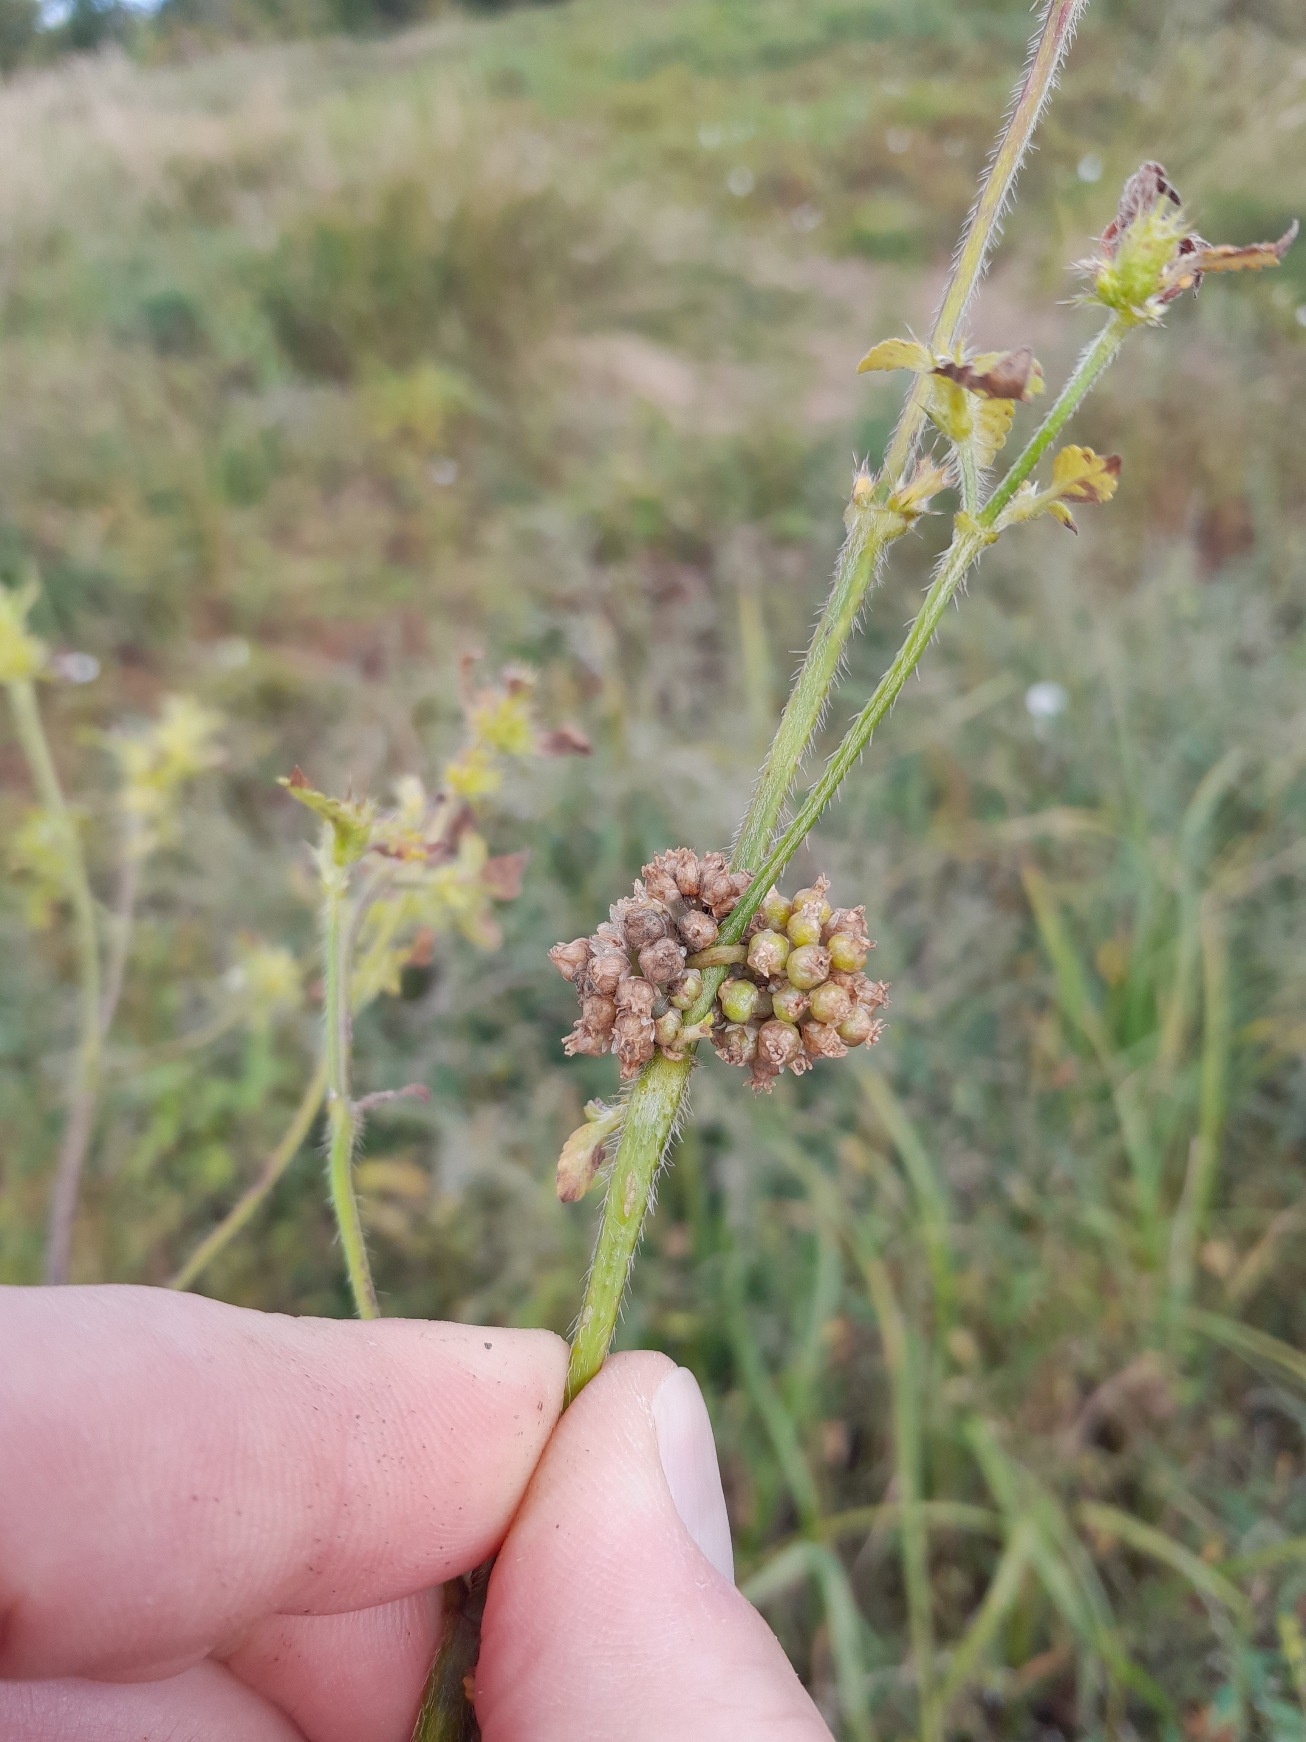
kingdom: Plantae
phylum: Tracheophyta
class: Magnoliopsida
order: Solanales
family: Convolvulaceae
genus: Cuscuta
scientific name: Cuscuta europaea
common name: Nælde-silke
